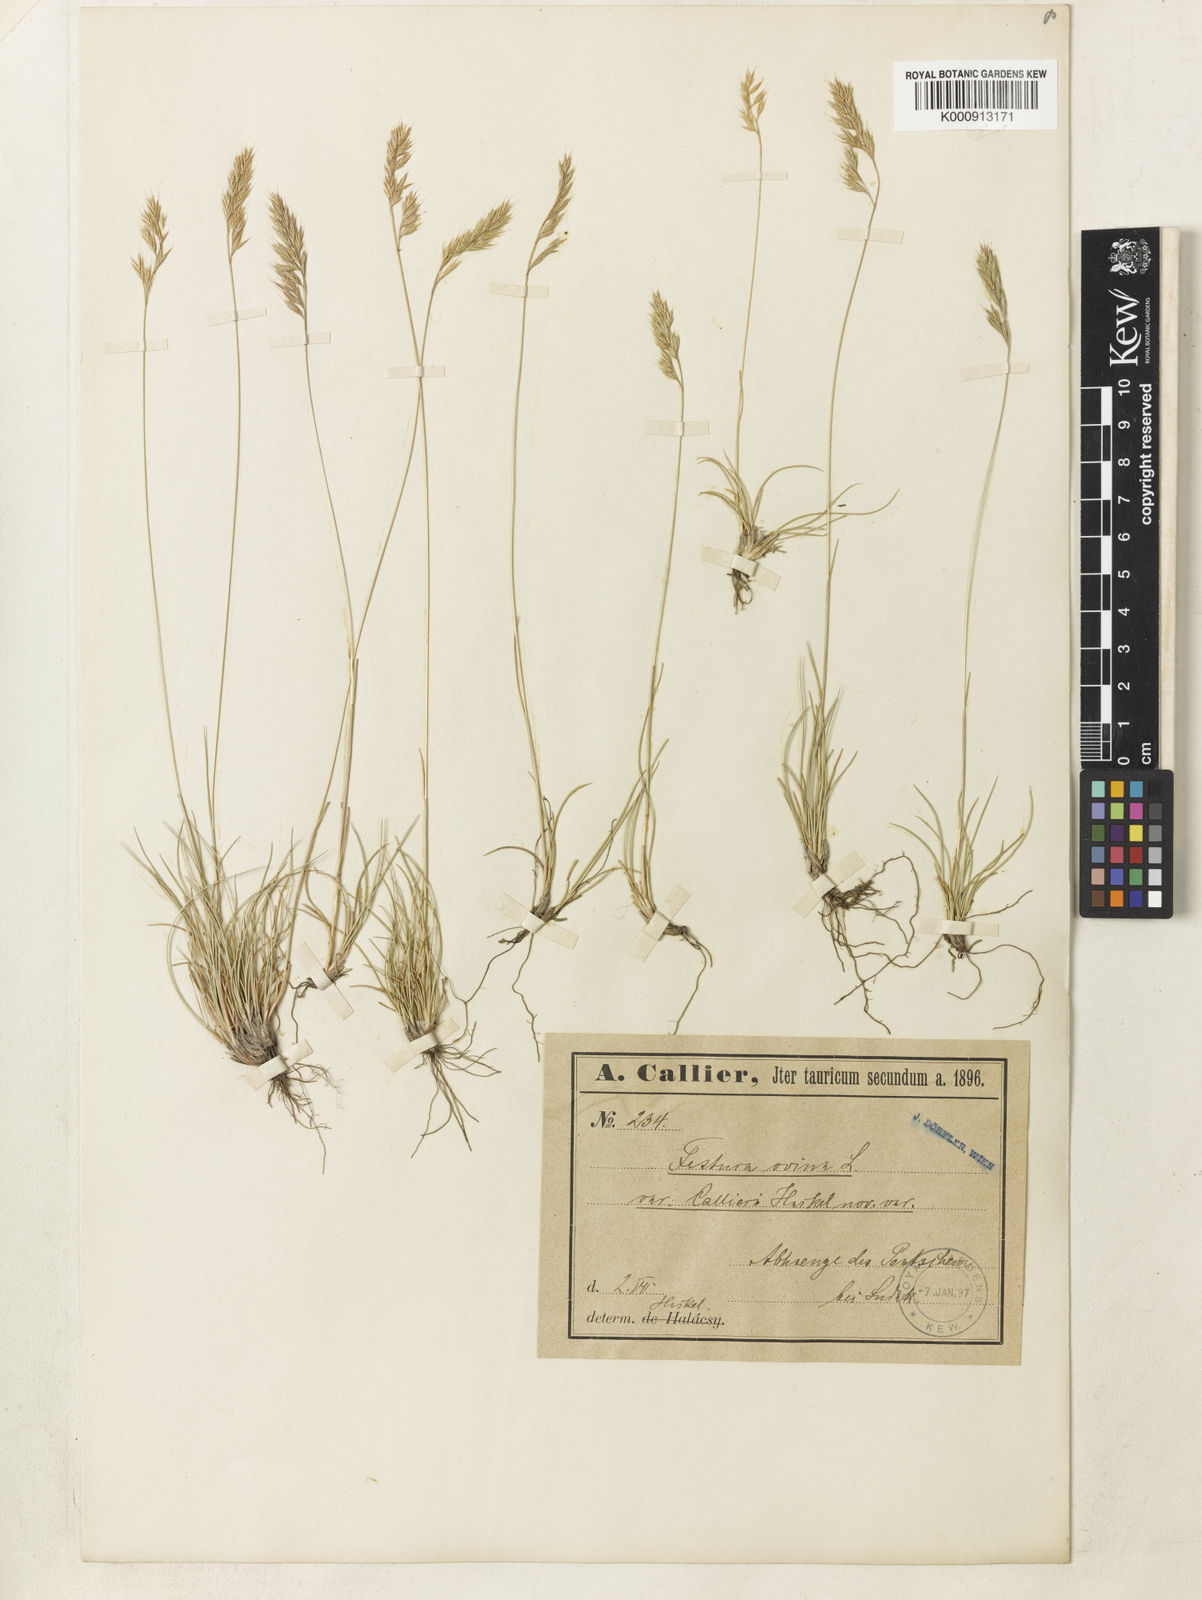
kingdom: Plantae
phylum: Tracheophyta
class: Liliopsida
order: Poales
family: Poaceae
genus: Festuca
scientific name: Festuca panciciana
